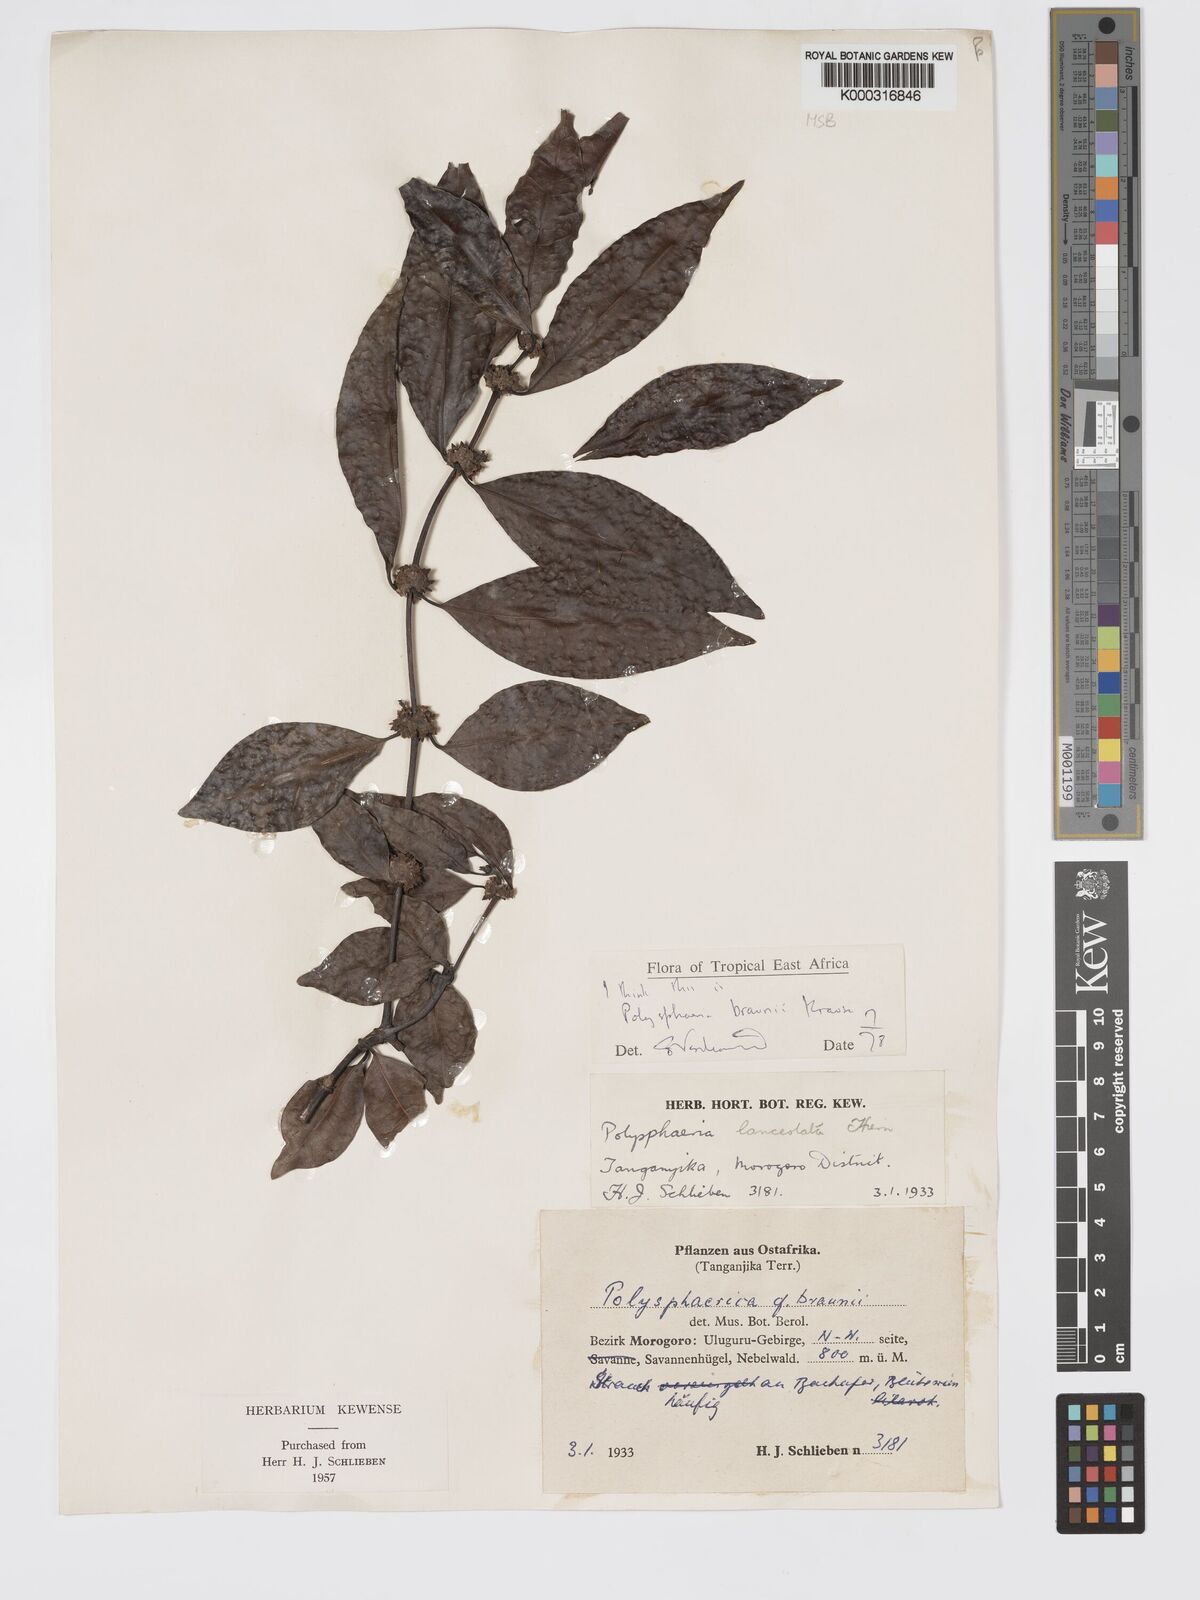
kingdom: Plantae
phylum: Tracheophyta
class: Magnoliopsida
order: Gentianales
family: Rubiaceae
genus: Polysphaeria
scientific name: Polysphaeria braunii
